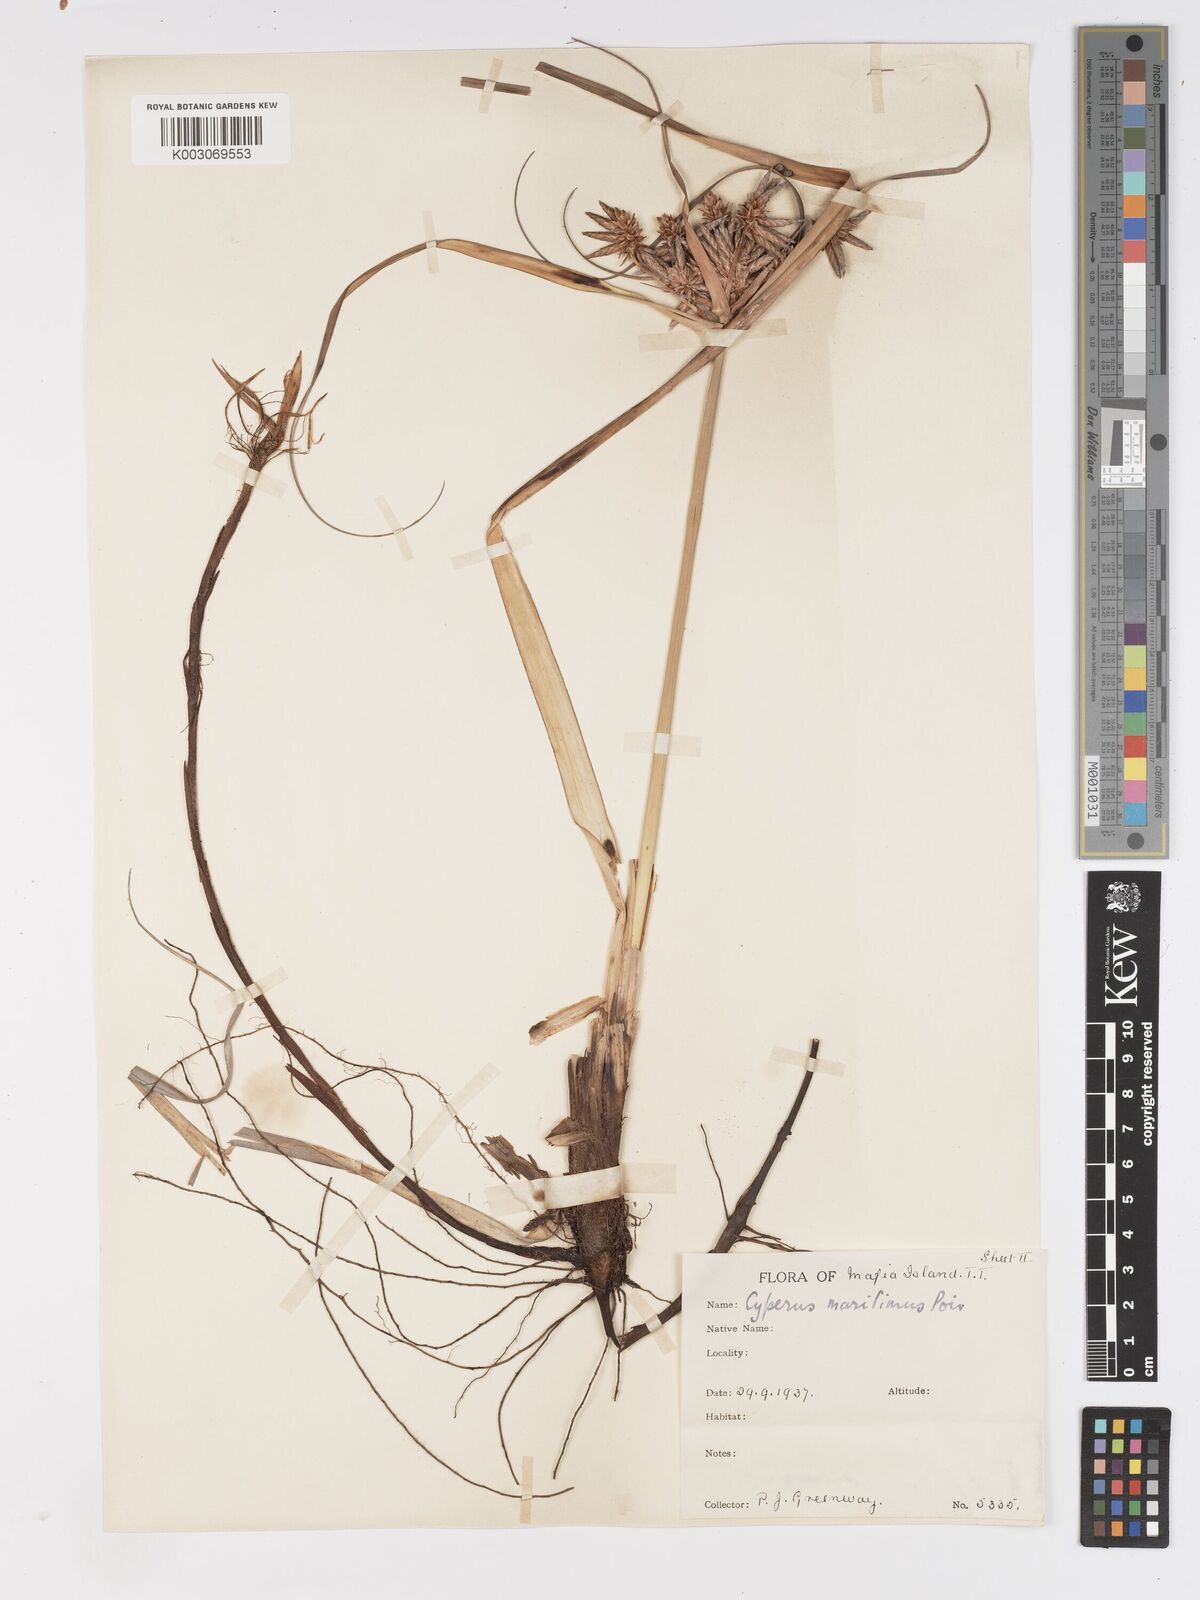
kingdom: Plantae
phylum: Tracheophyta
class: Liliopsida
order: Poales
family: Cyperaceae
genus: Cyperus
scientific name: Cyperus crassipes
